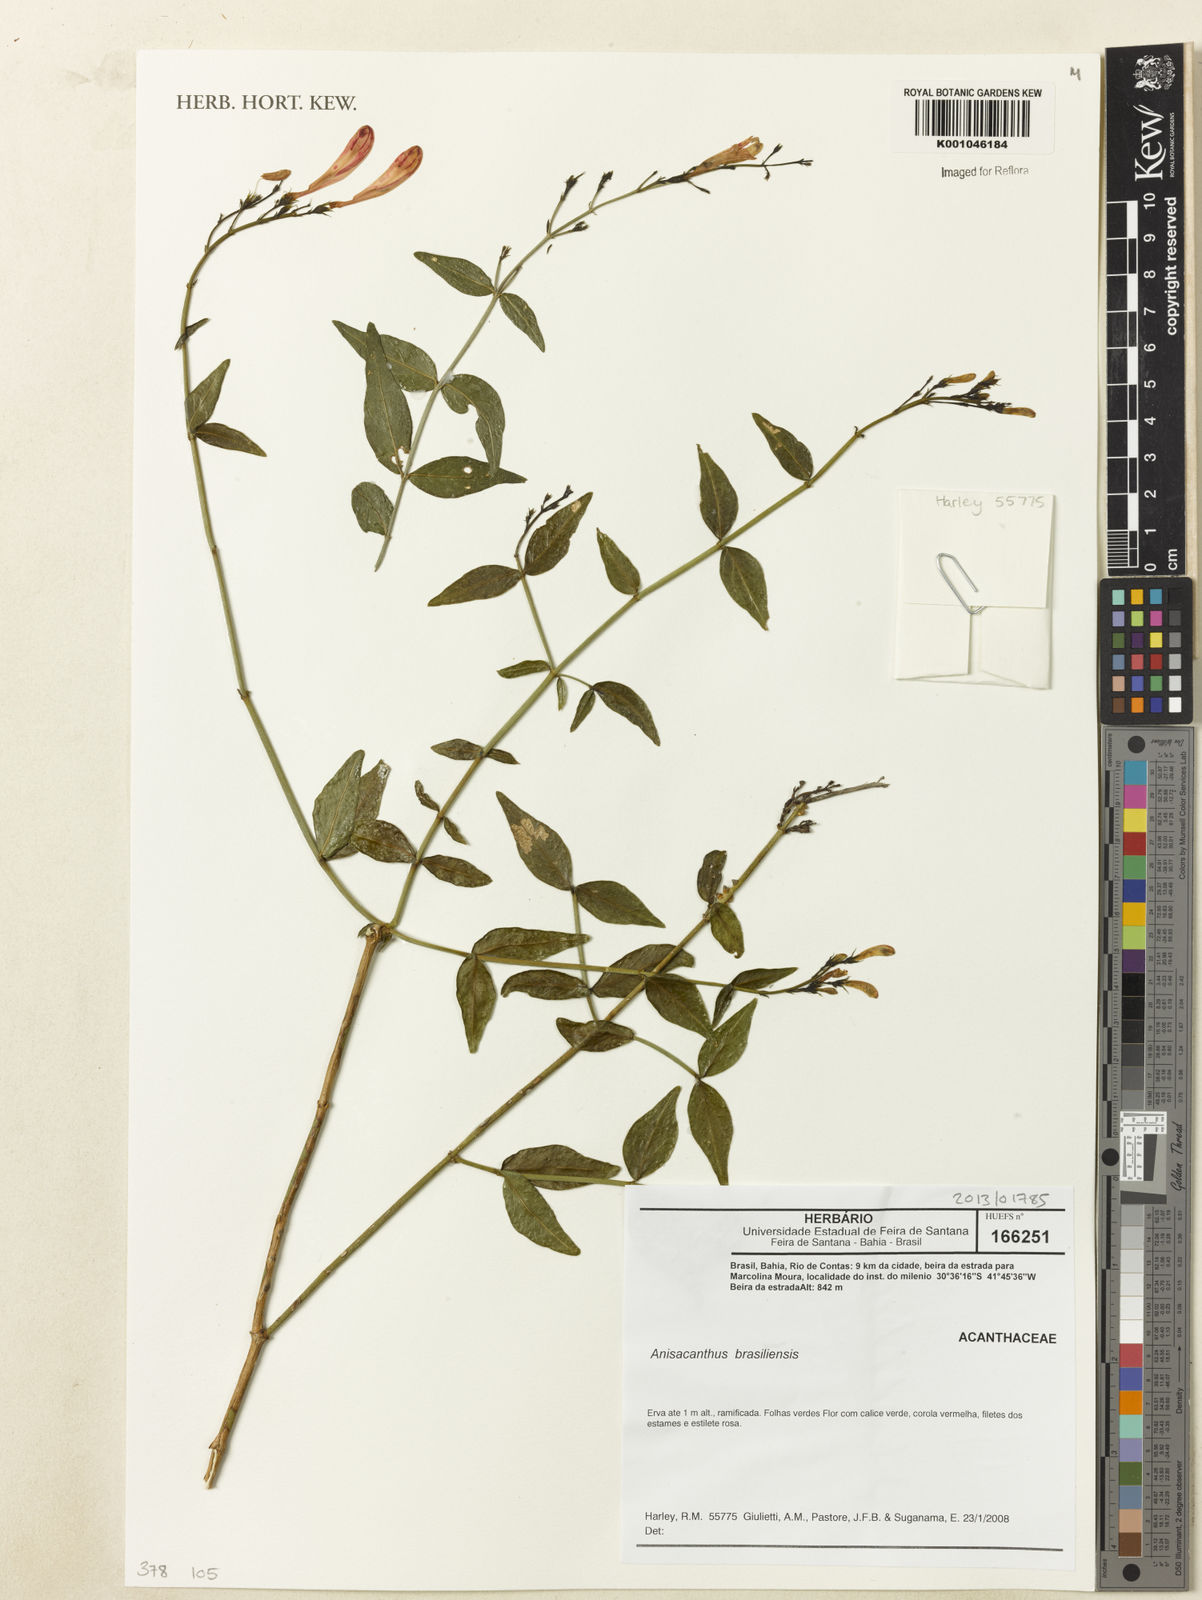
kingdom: Plantae
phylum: Tracheophyta
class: Magnoliopsida
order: Lamiales
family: Acanthaceae
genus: Thyrsacanthus
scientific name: Thyrsacanthus ramosissimus
